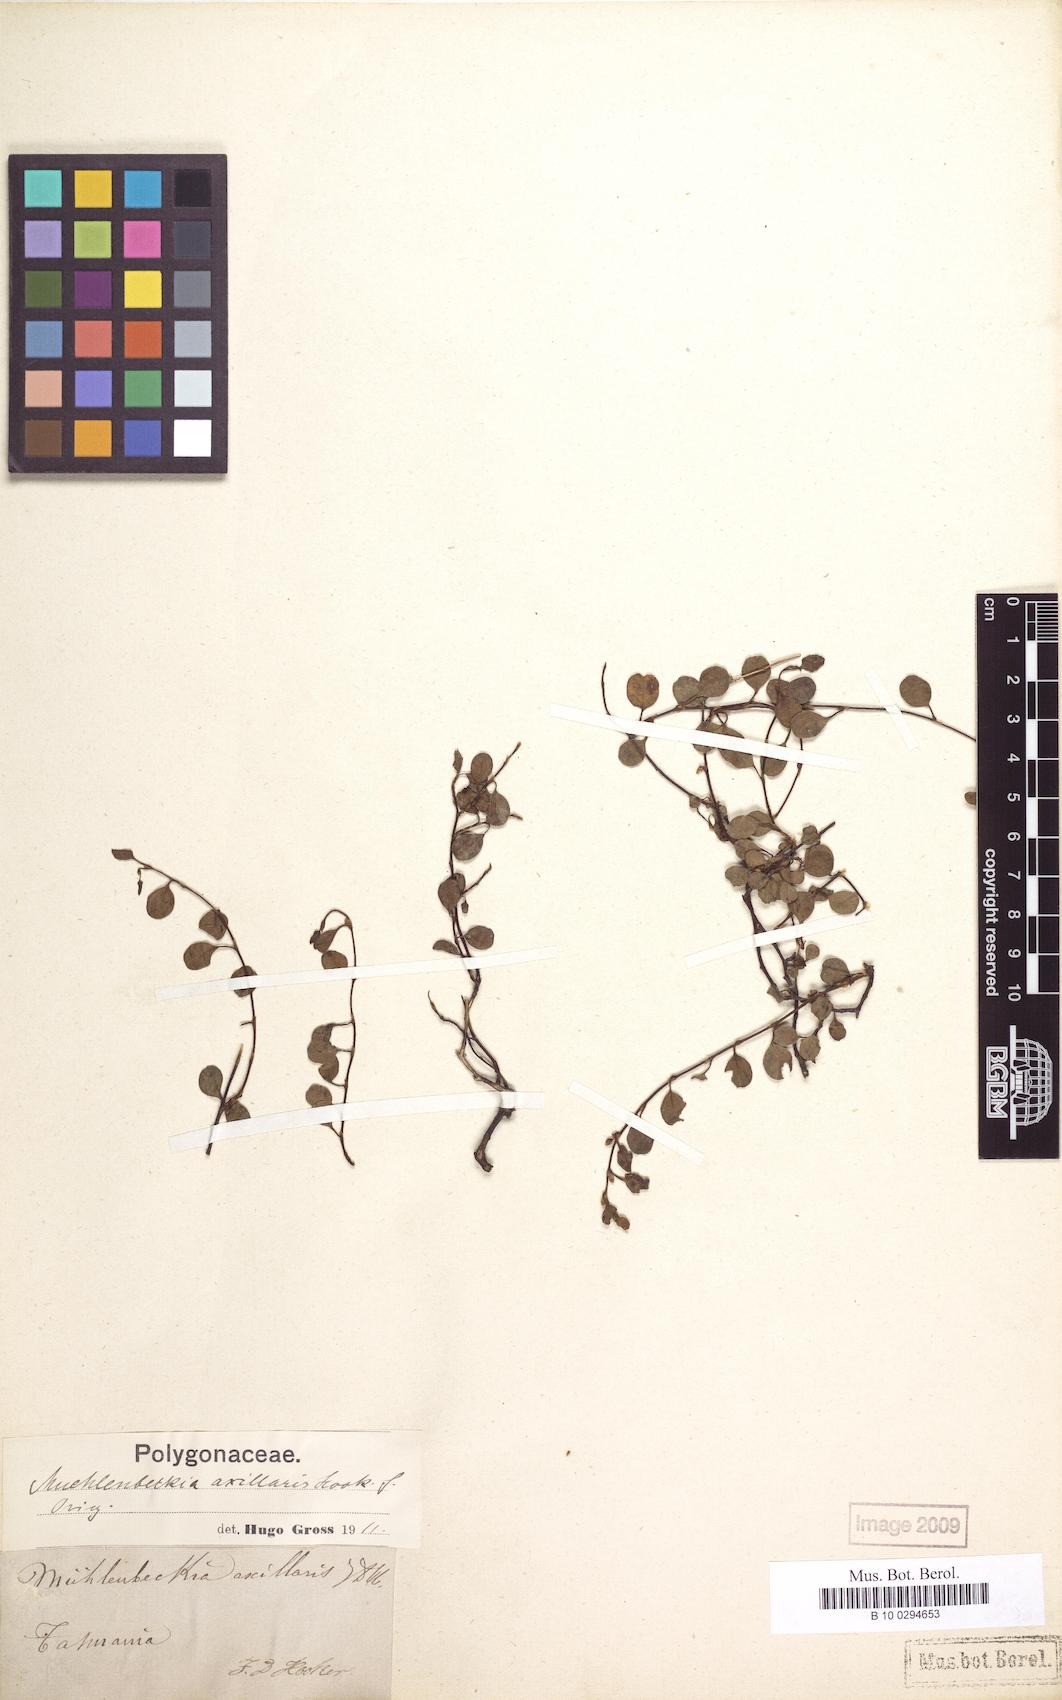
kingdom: Plantae
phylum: Tracheophyta
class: Magnoliopsida
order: Caryophyllales
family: Polygonaceae
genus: Muehlenbeckia
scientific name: Muehlenbeckia axillaris
